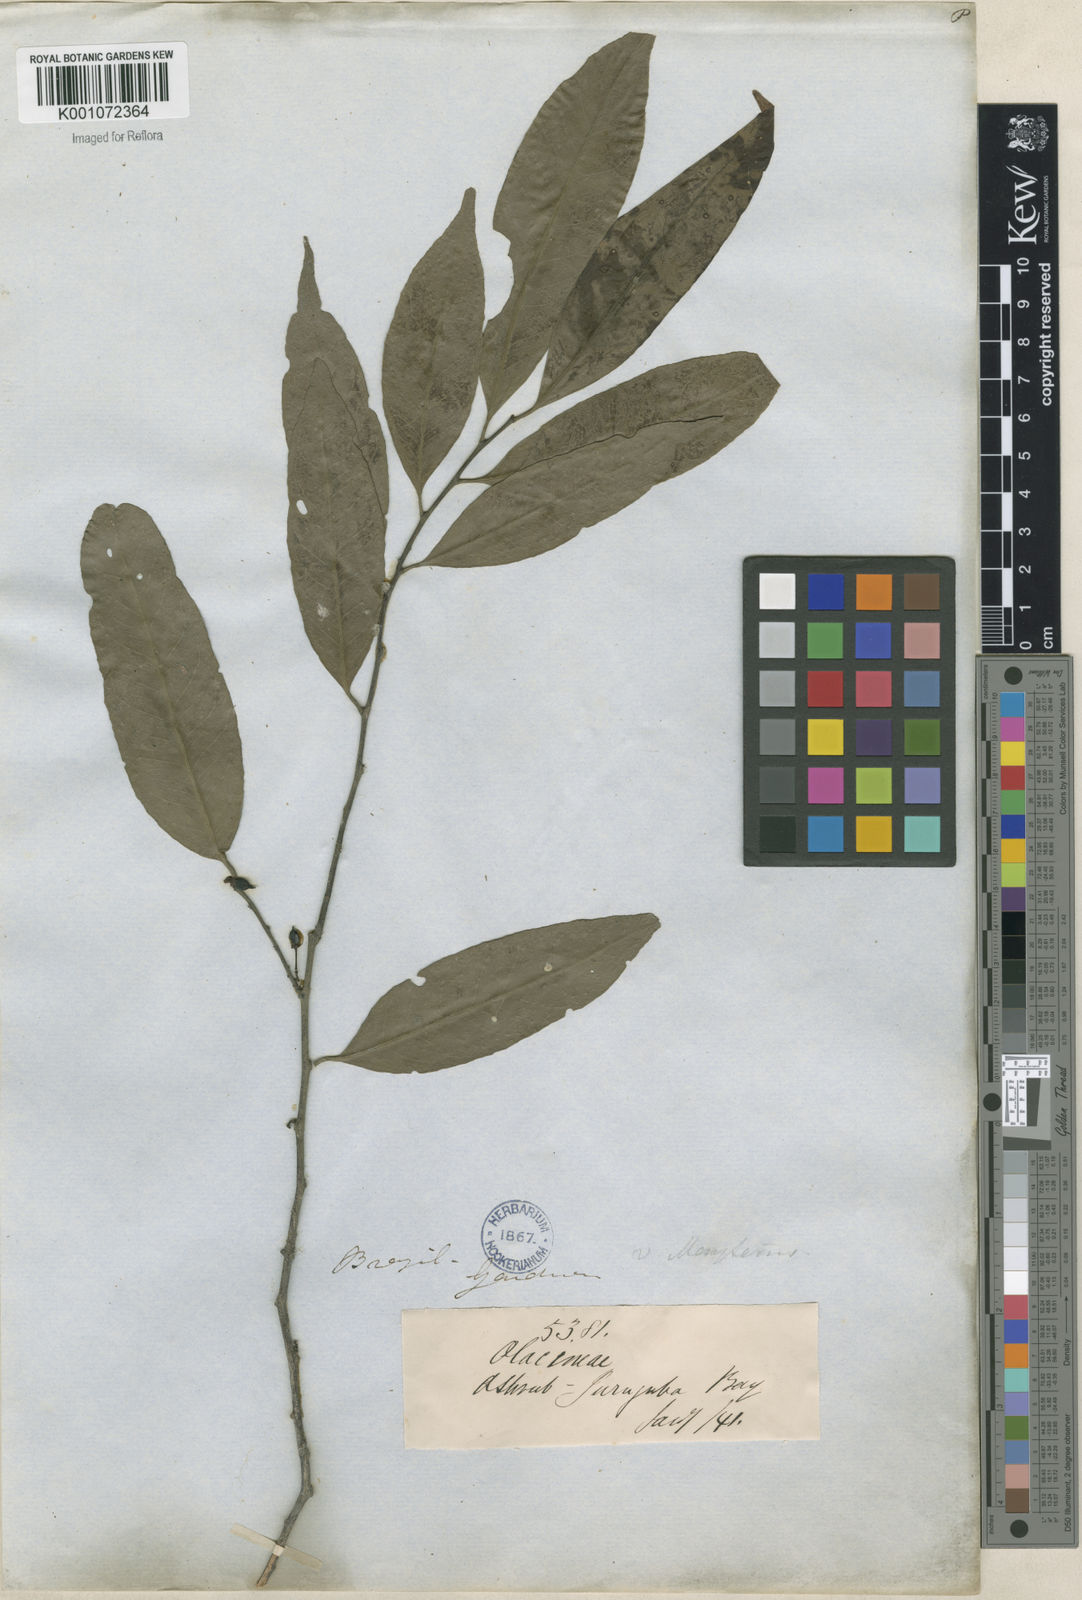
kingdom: Plantae
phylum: Tracheophyta
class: Magnoliopsida
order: Celastrales
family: Celastraceae
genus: Maytenus
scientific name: Maytenus
